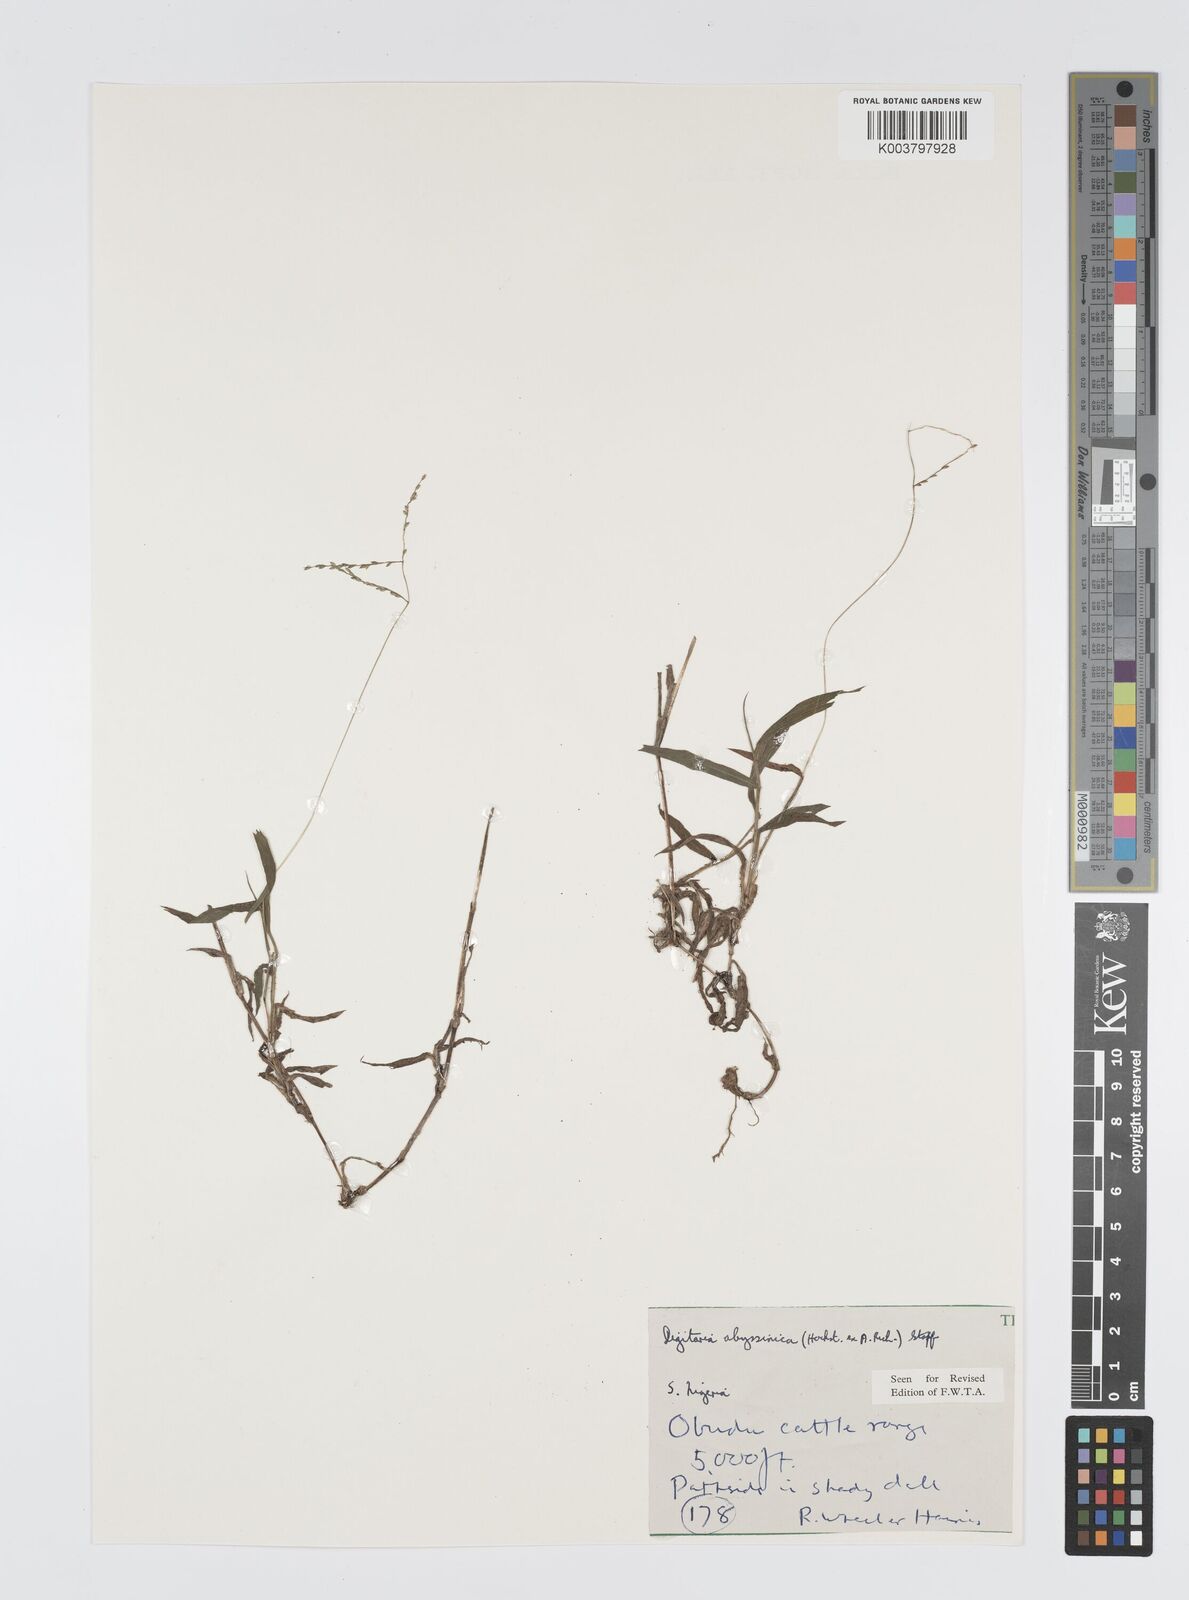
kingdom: Plantae
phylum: Tracheophyta
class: Liliopsida
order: Poales
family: Poaceae
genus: Digitaria
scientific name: Digitaria abyssinica
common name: African couchgrass
